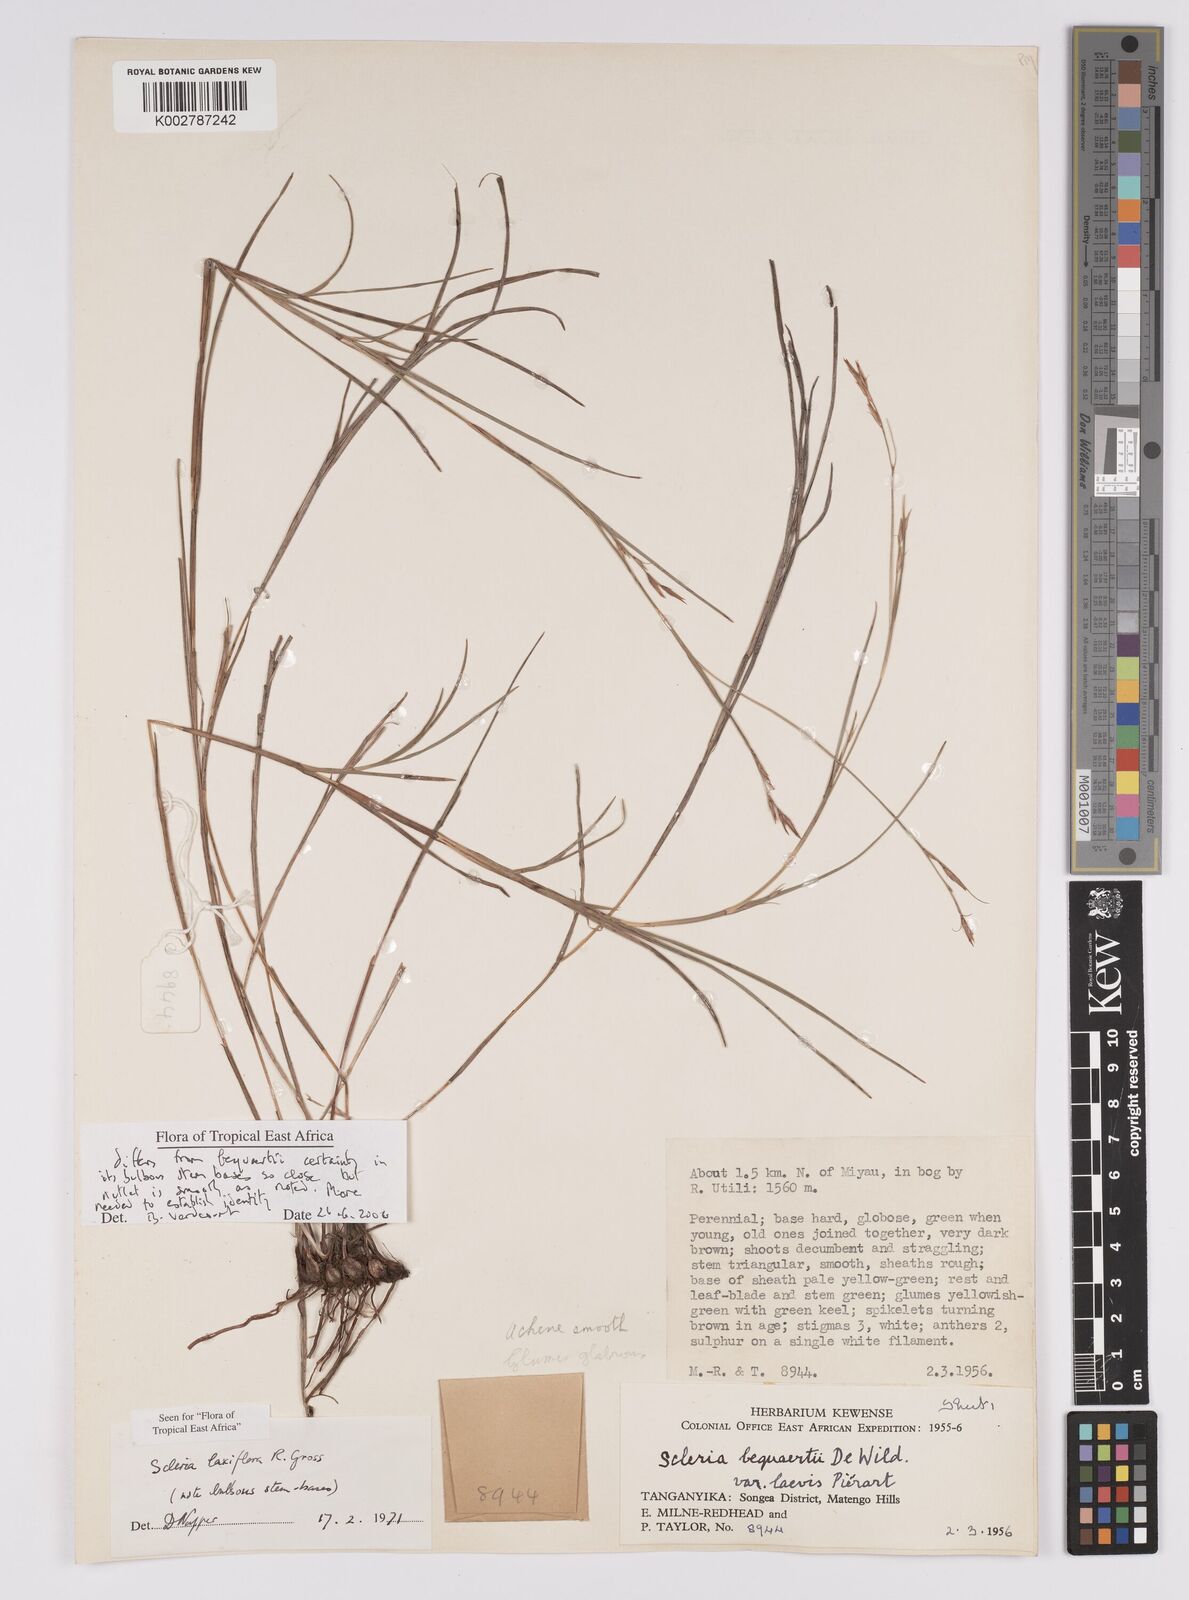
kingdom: Plantae
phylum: Tracheophyta
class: Liliopsida
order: Poales
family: Cyperaceae
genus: Scleria
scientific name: Scleria laxiflora
